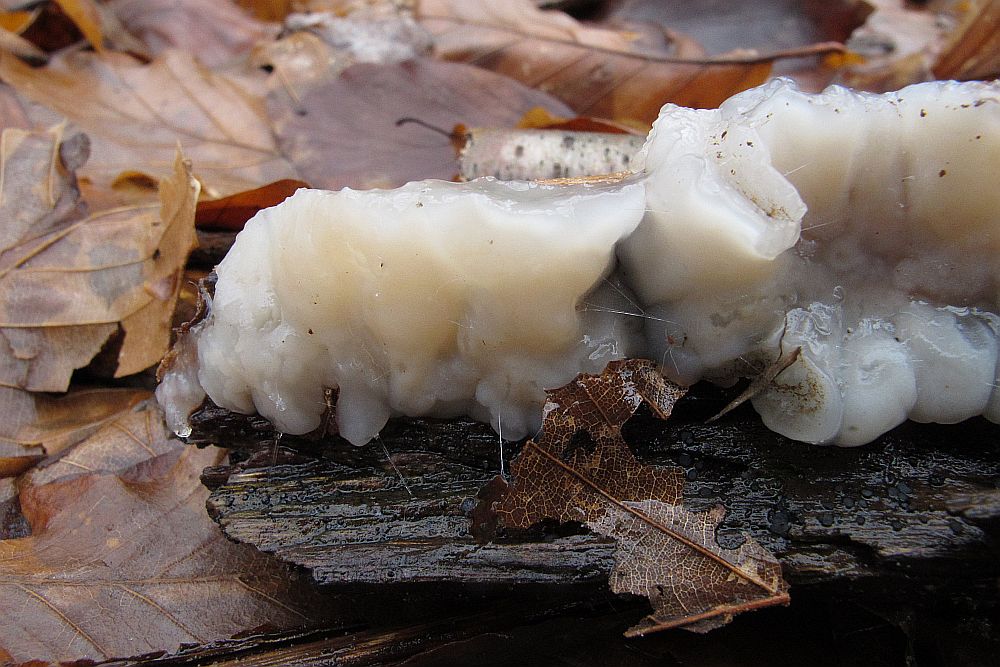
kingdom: Fungi
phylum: Basidiomycota
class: Agaricomycetes
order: Auriculariales
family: Auriculariaceae
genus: Exidia
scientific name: Exidia thuretiana
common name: hvidlig bævretop
